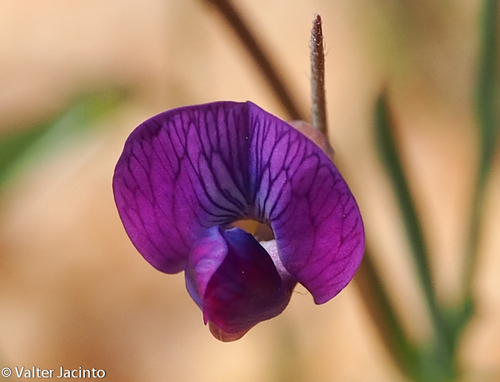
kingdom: Plantae
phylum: Tracheophyta
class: Magnoliopsida
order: Fabales
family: Fabaceae
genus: Lathyrus
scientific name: Lathyrus angulatus
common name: Angular pea
